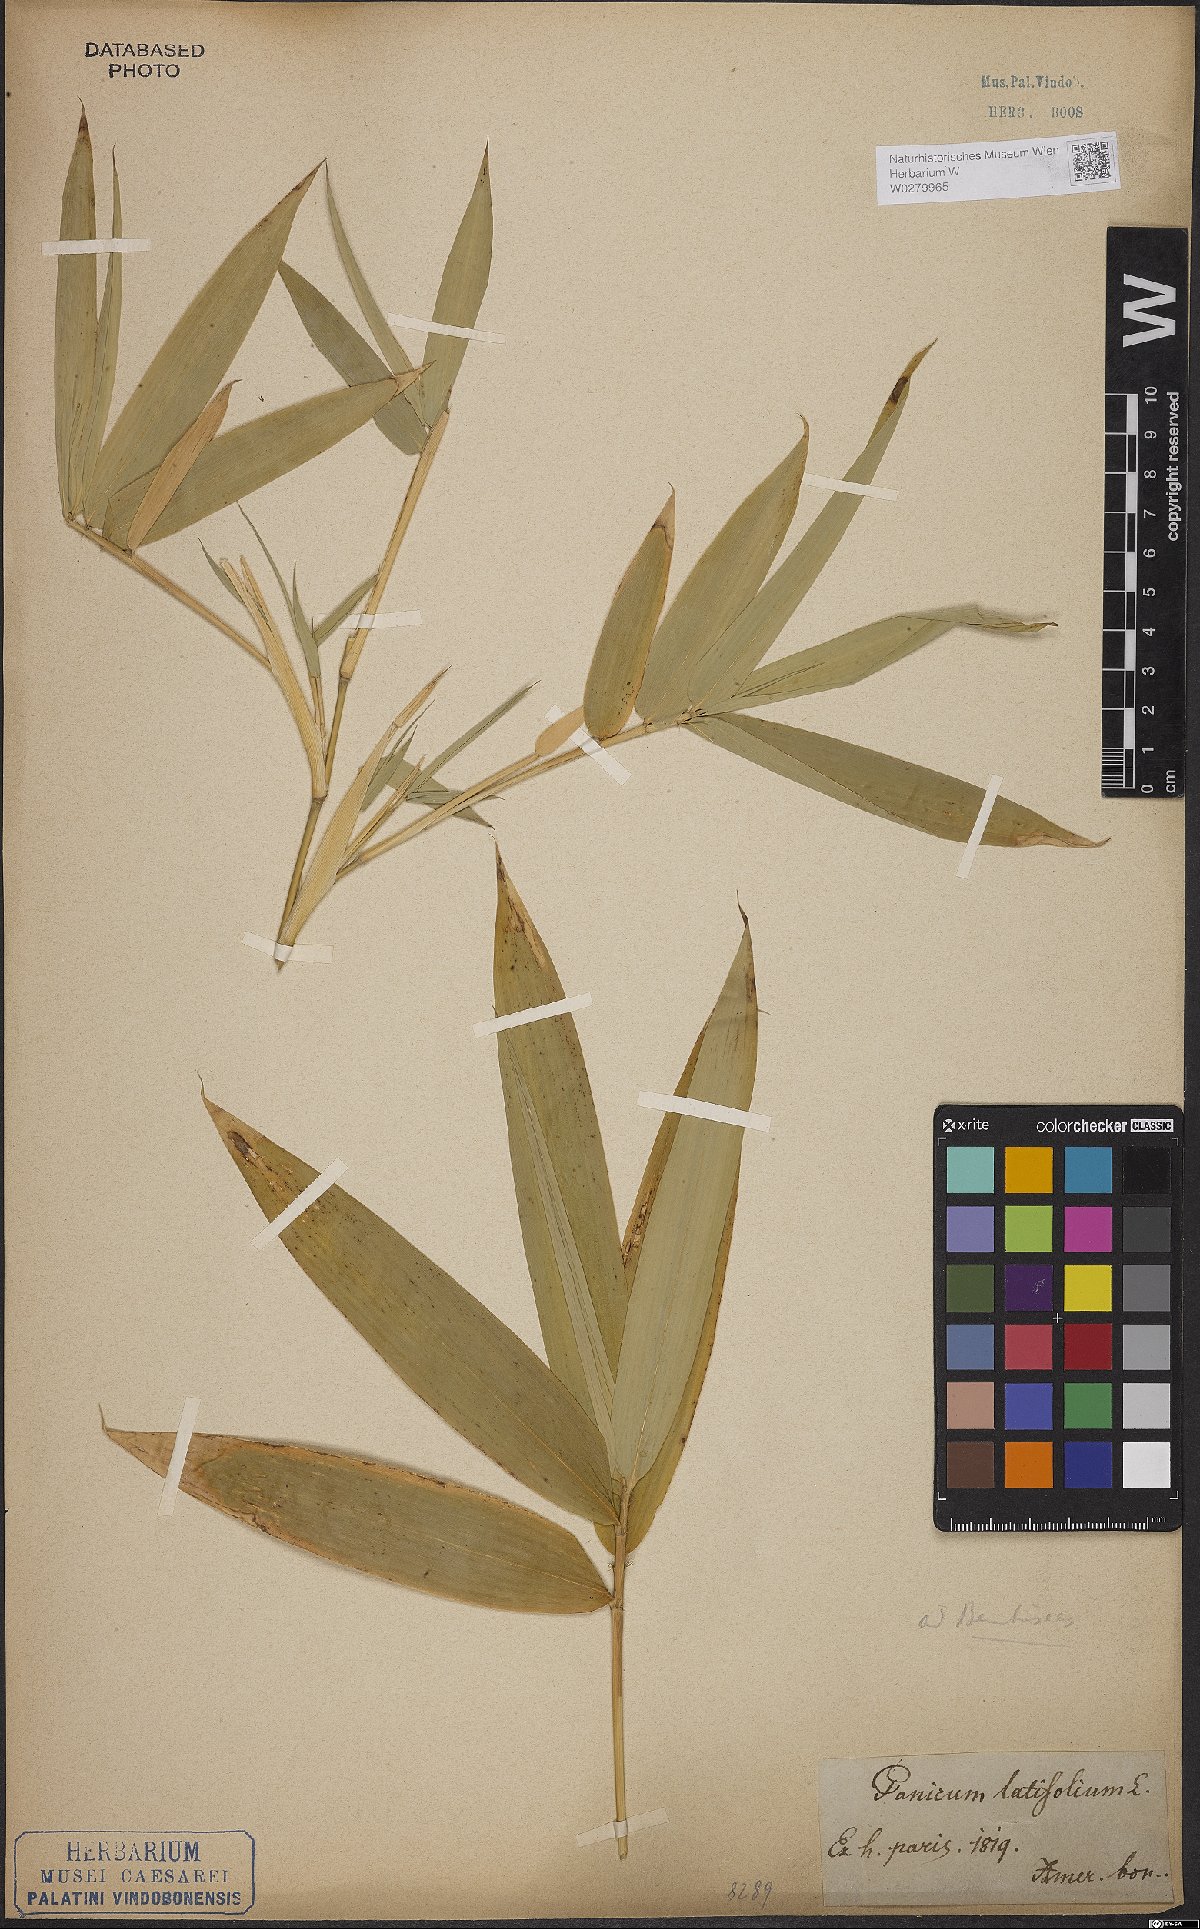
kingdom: Plantae
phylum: Tracheophyta
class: Liliopsida
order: Poales
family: Poaceae
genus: Guadua
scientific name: Guadua latifolia
